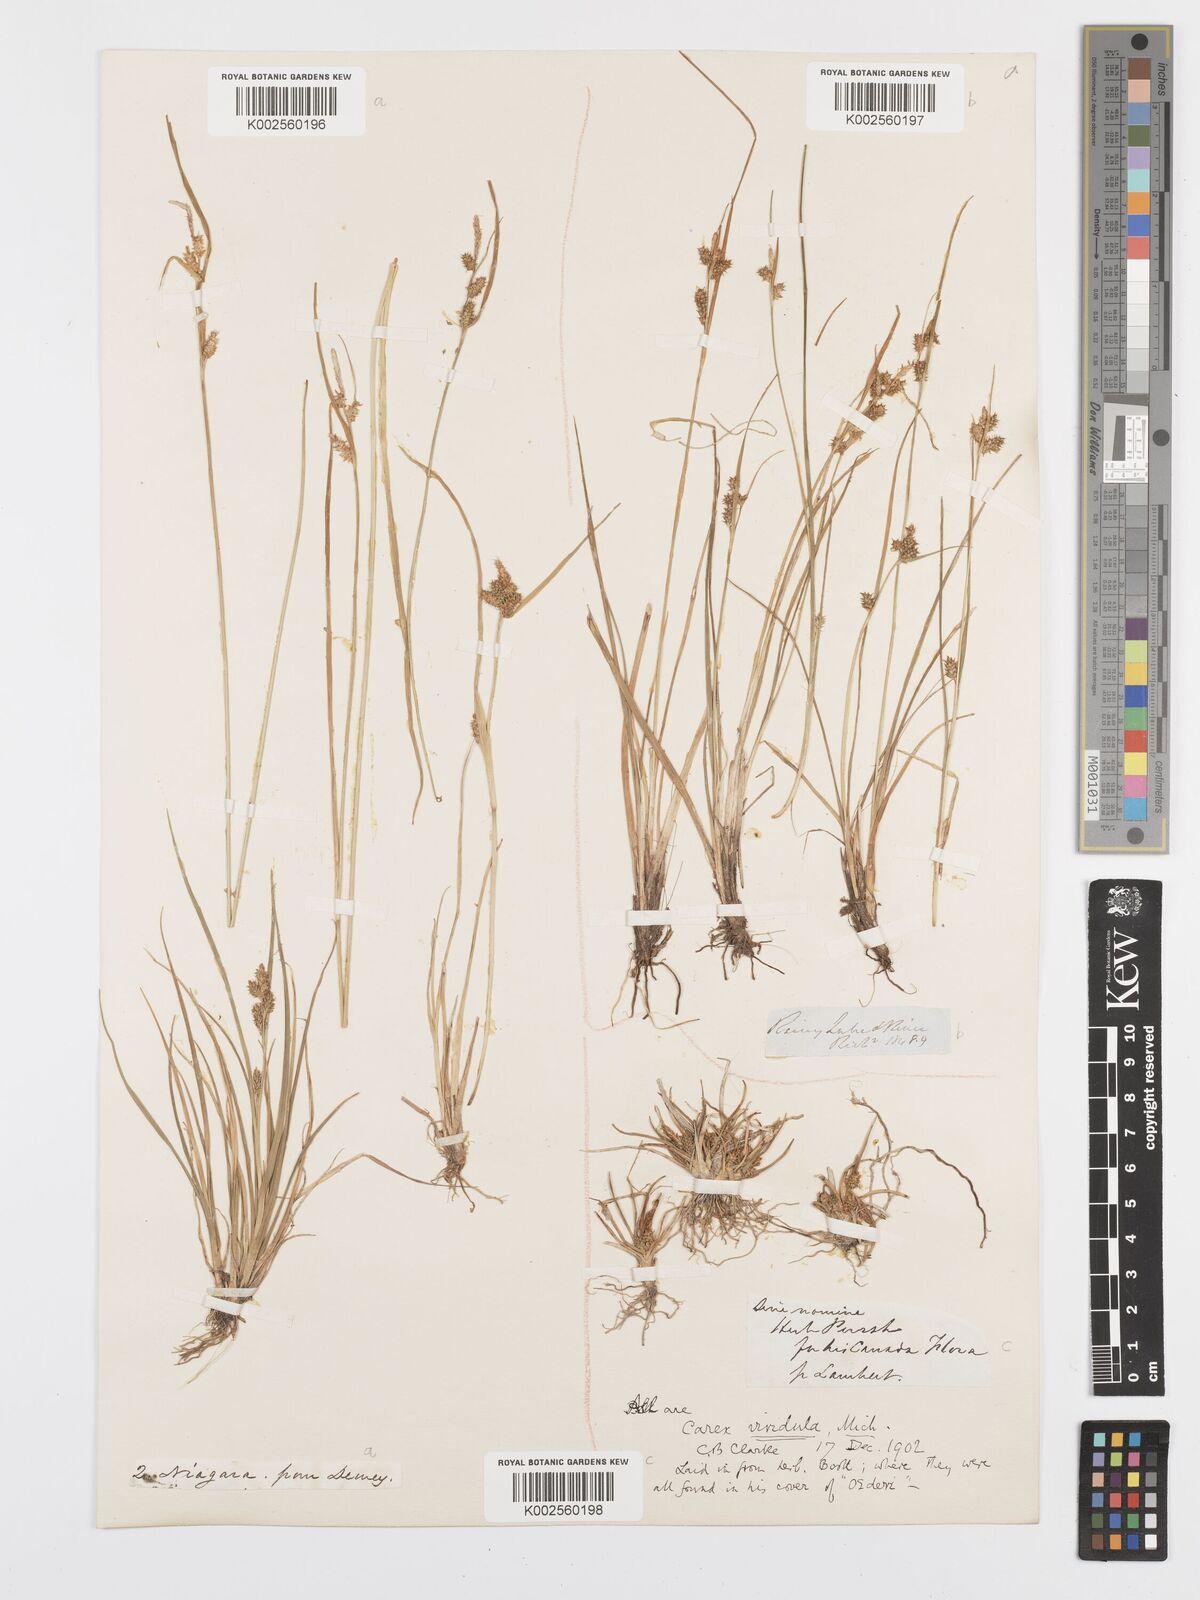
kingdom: Plantae
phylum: Tracheophyta
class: Liliopsida
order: Poales
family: Cyperaceae
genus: Carex
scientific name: Carex oederi
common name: Common & small-fruited yellow-sedge
